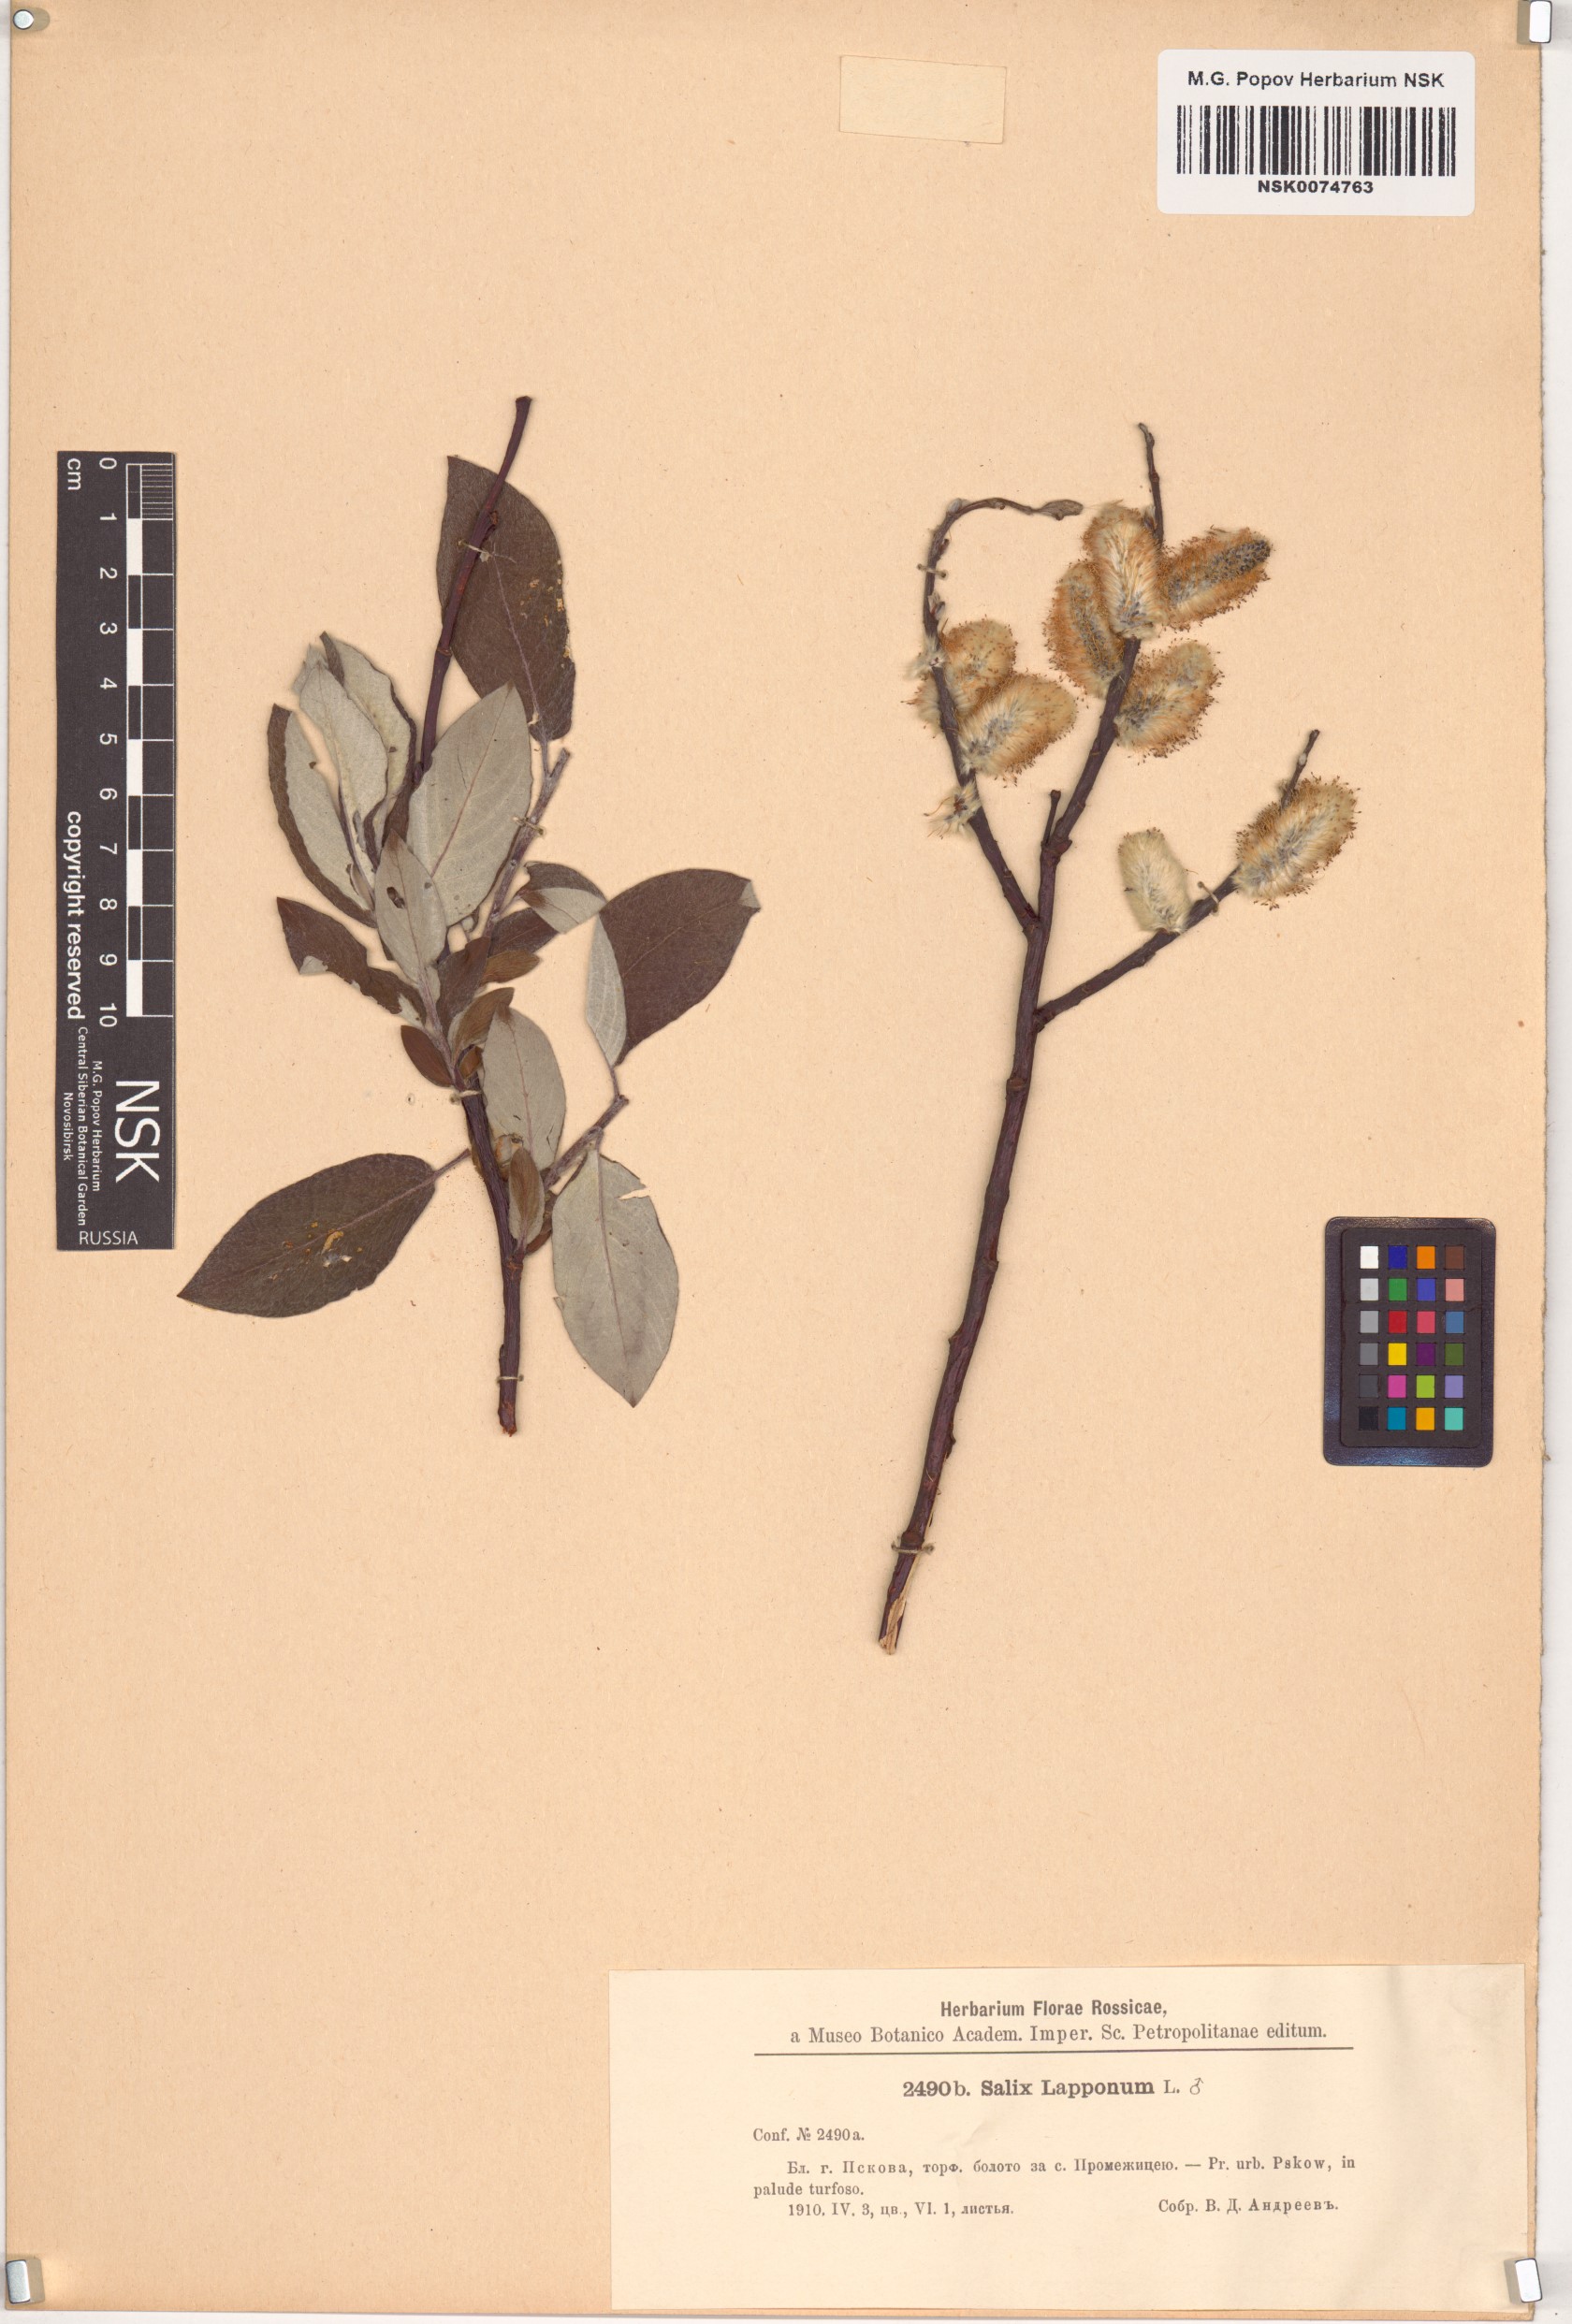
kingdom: Plantae
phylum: Tracheophyta
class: Magnoliopsida
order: Malpighiales
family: Salicaceae
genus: Salix
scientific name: Salix lapponum
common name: Downy willow
